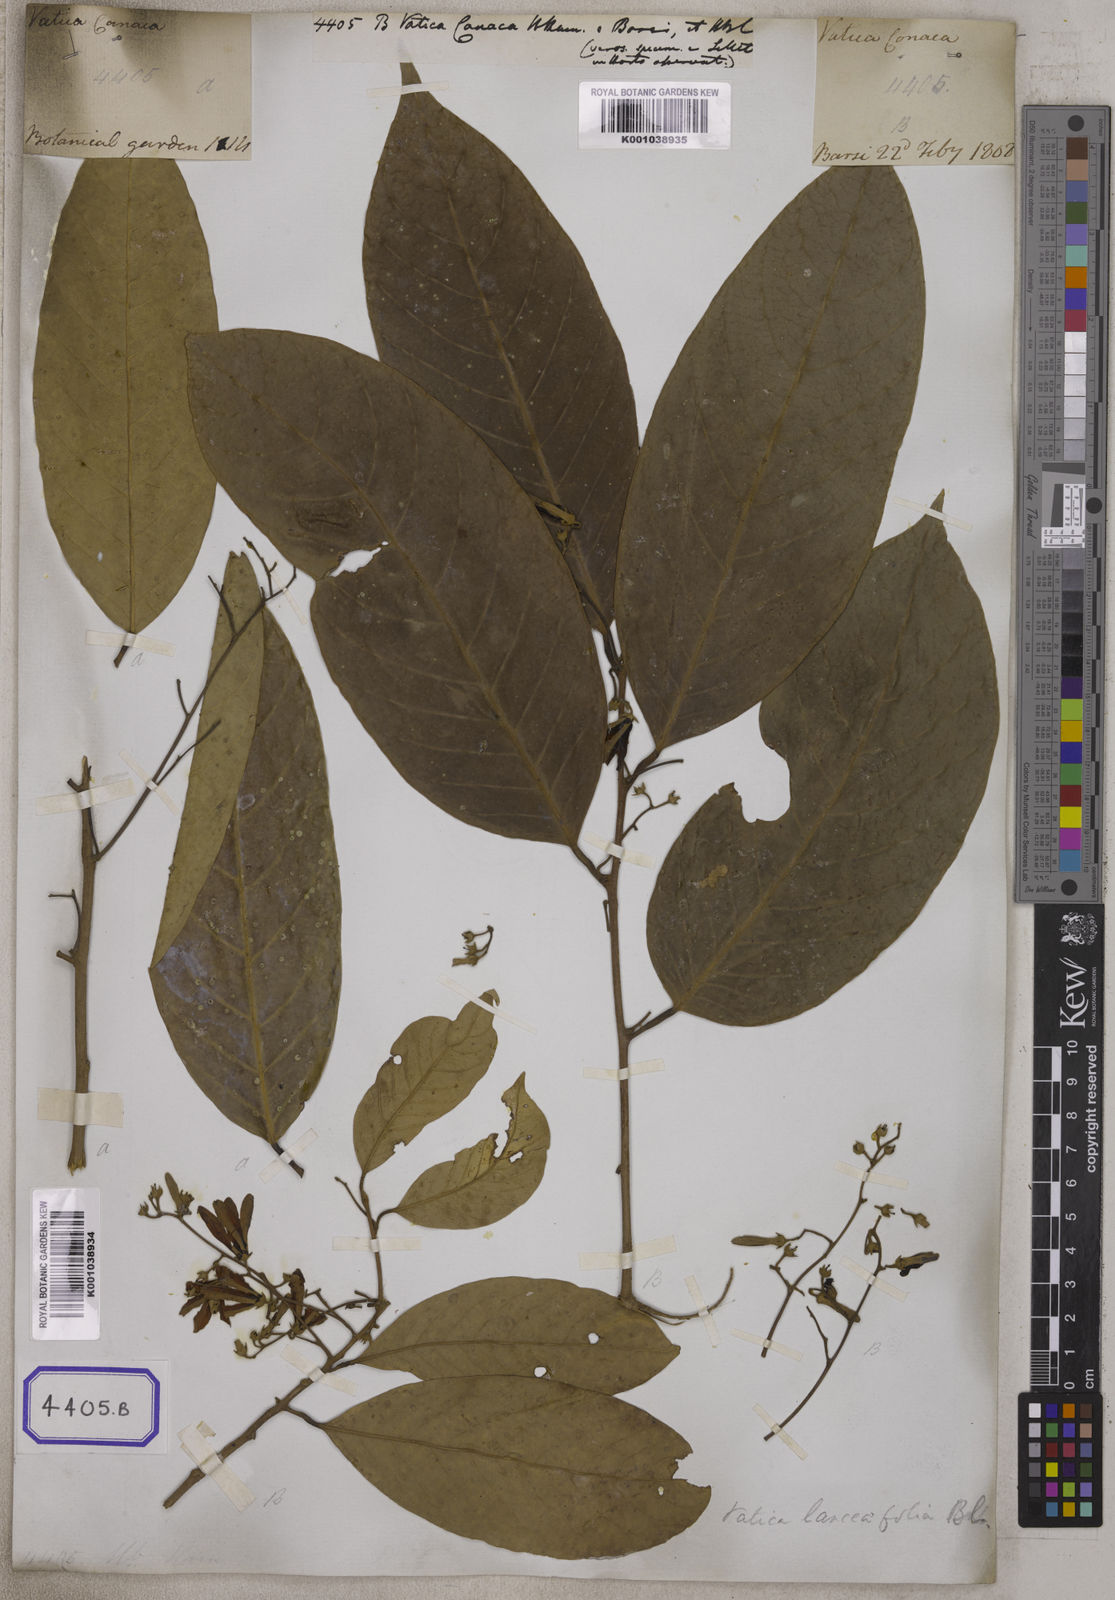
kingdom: Plantae
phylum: Tracheophyta
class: Magnoliopsida
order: Malvales
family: Dipterocarpaceae
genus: Vateria
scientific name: Vateria
